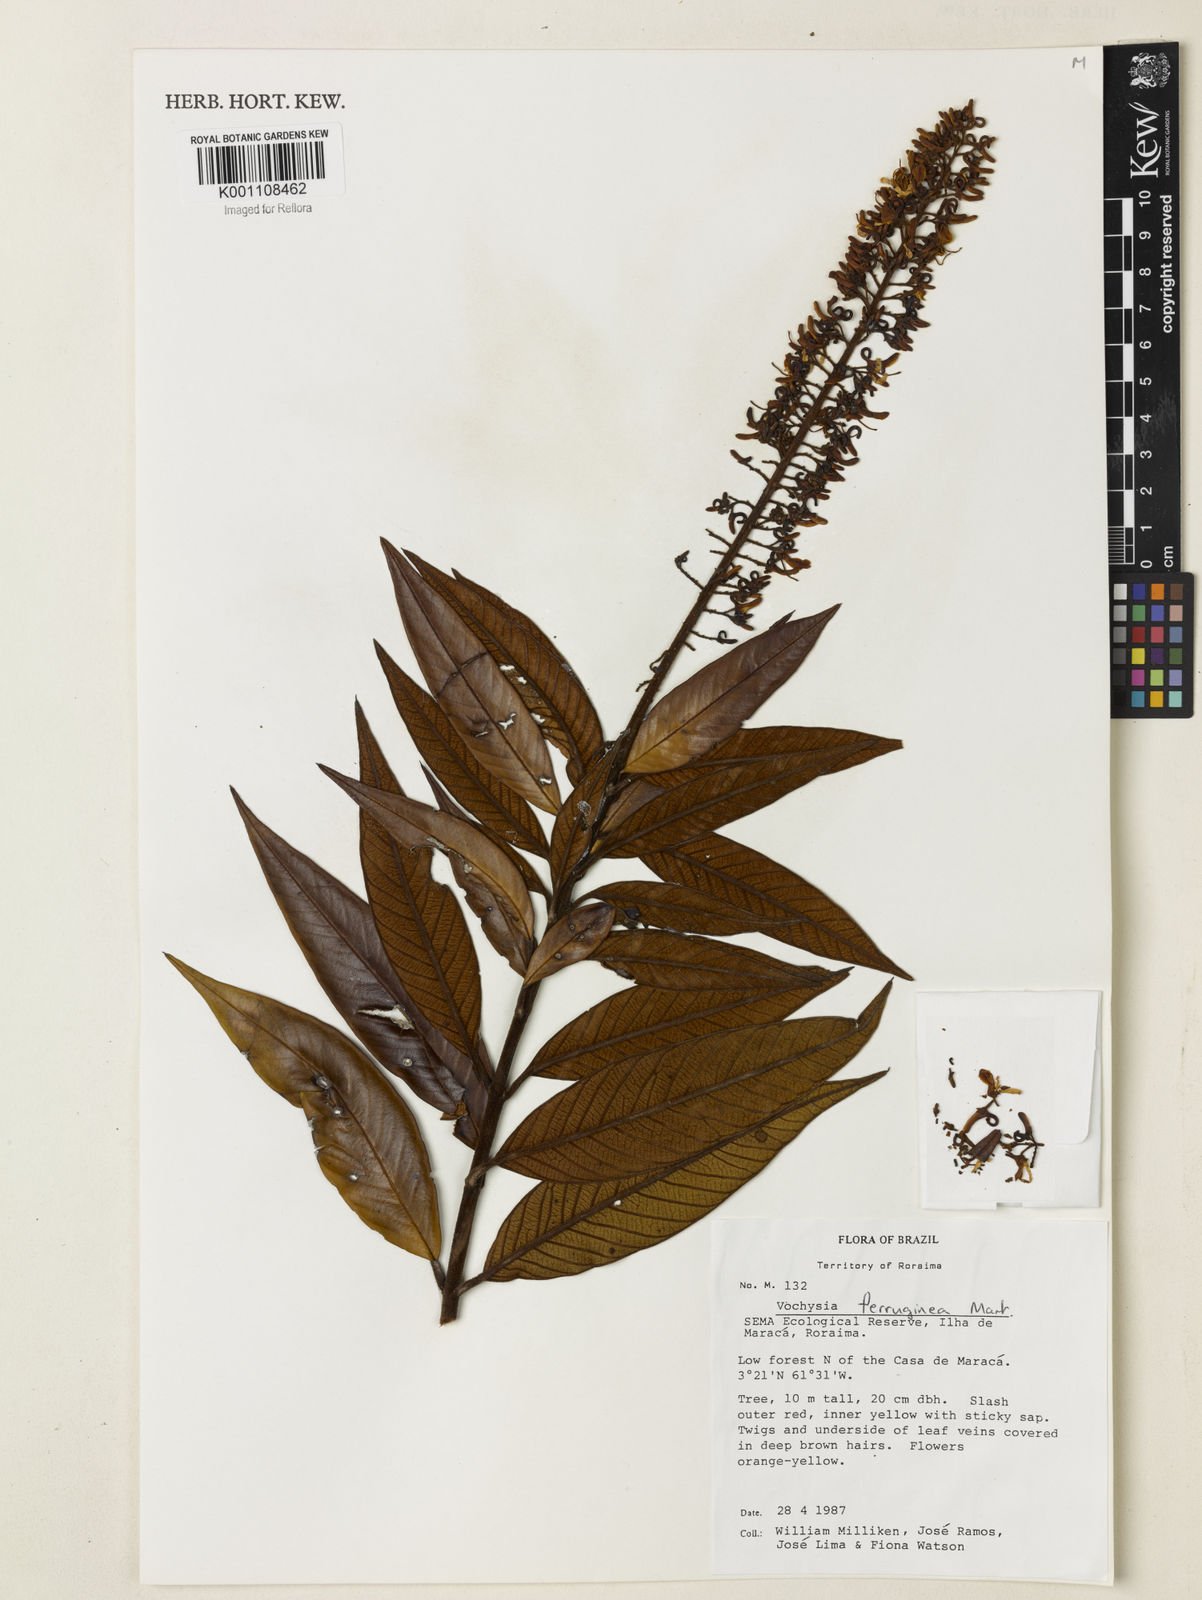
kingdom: Plantae
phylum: Tracheophyta
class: Magnoliopsida
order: Myrtales
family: Vochysiaceae
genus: Vochysia
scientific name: Vochysia ferruginea
